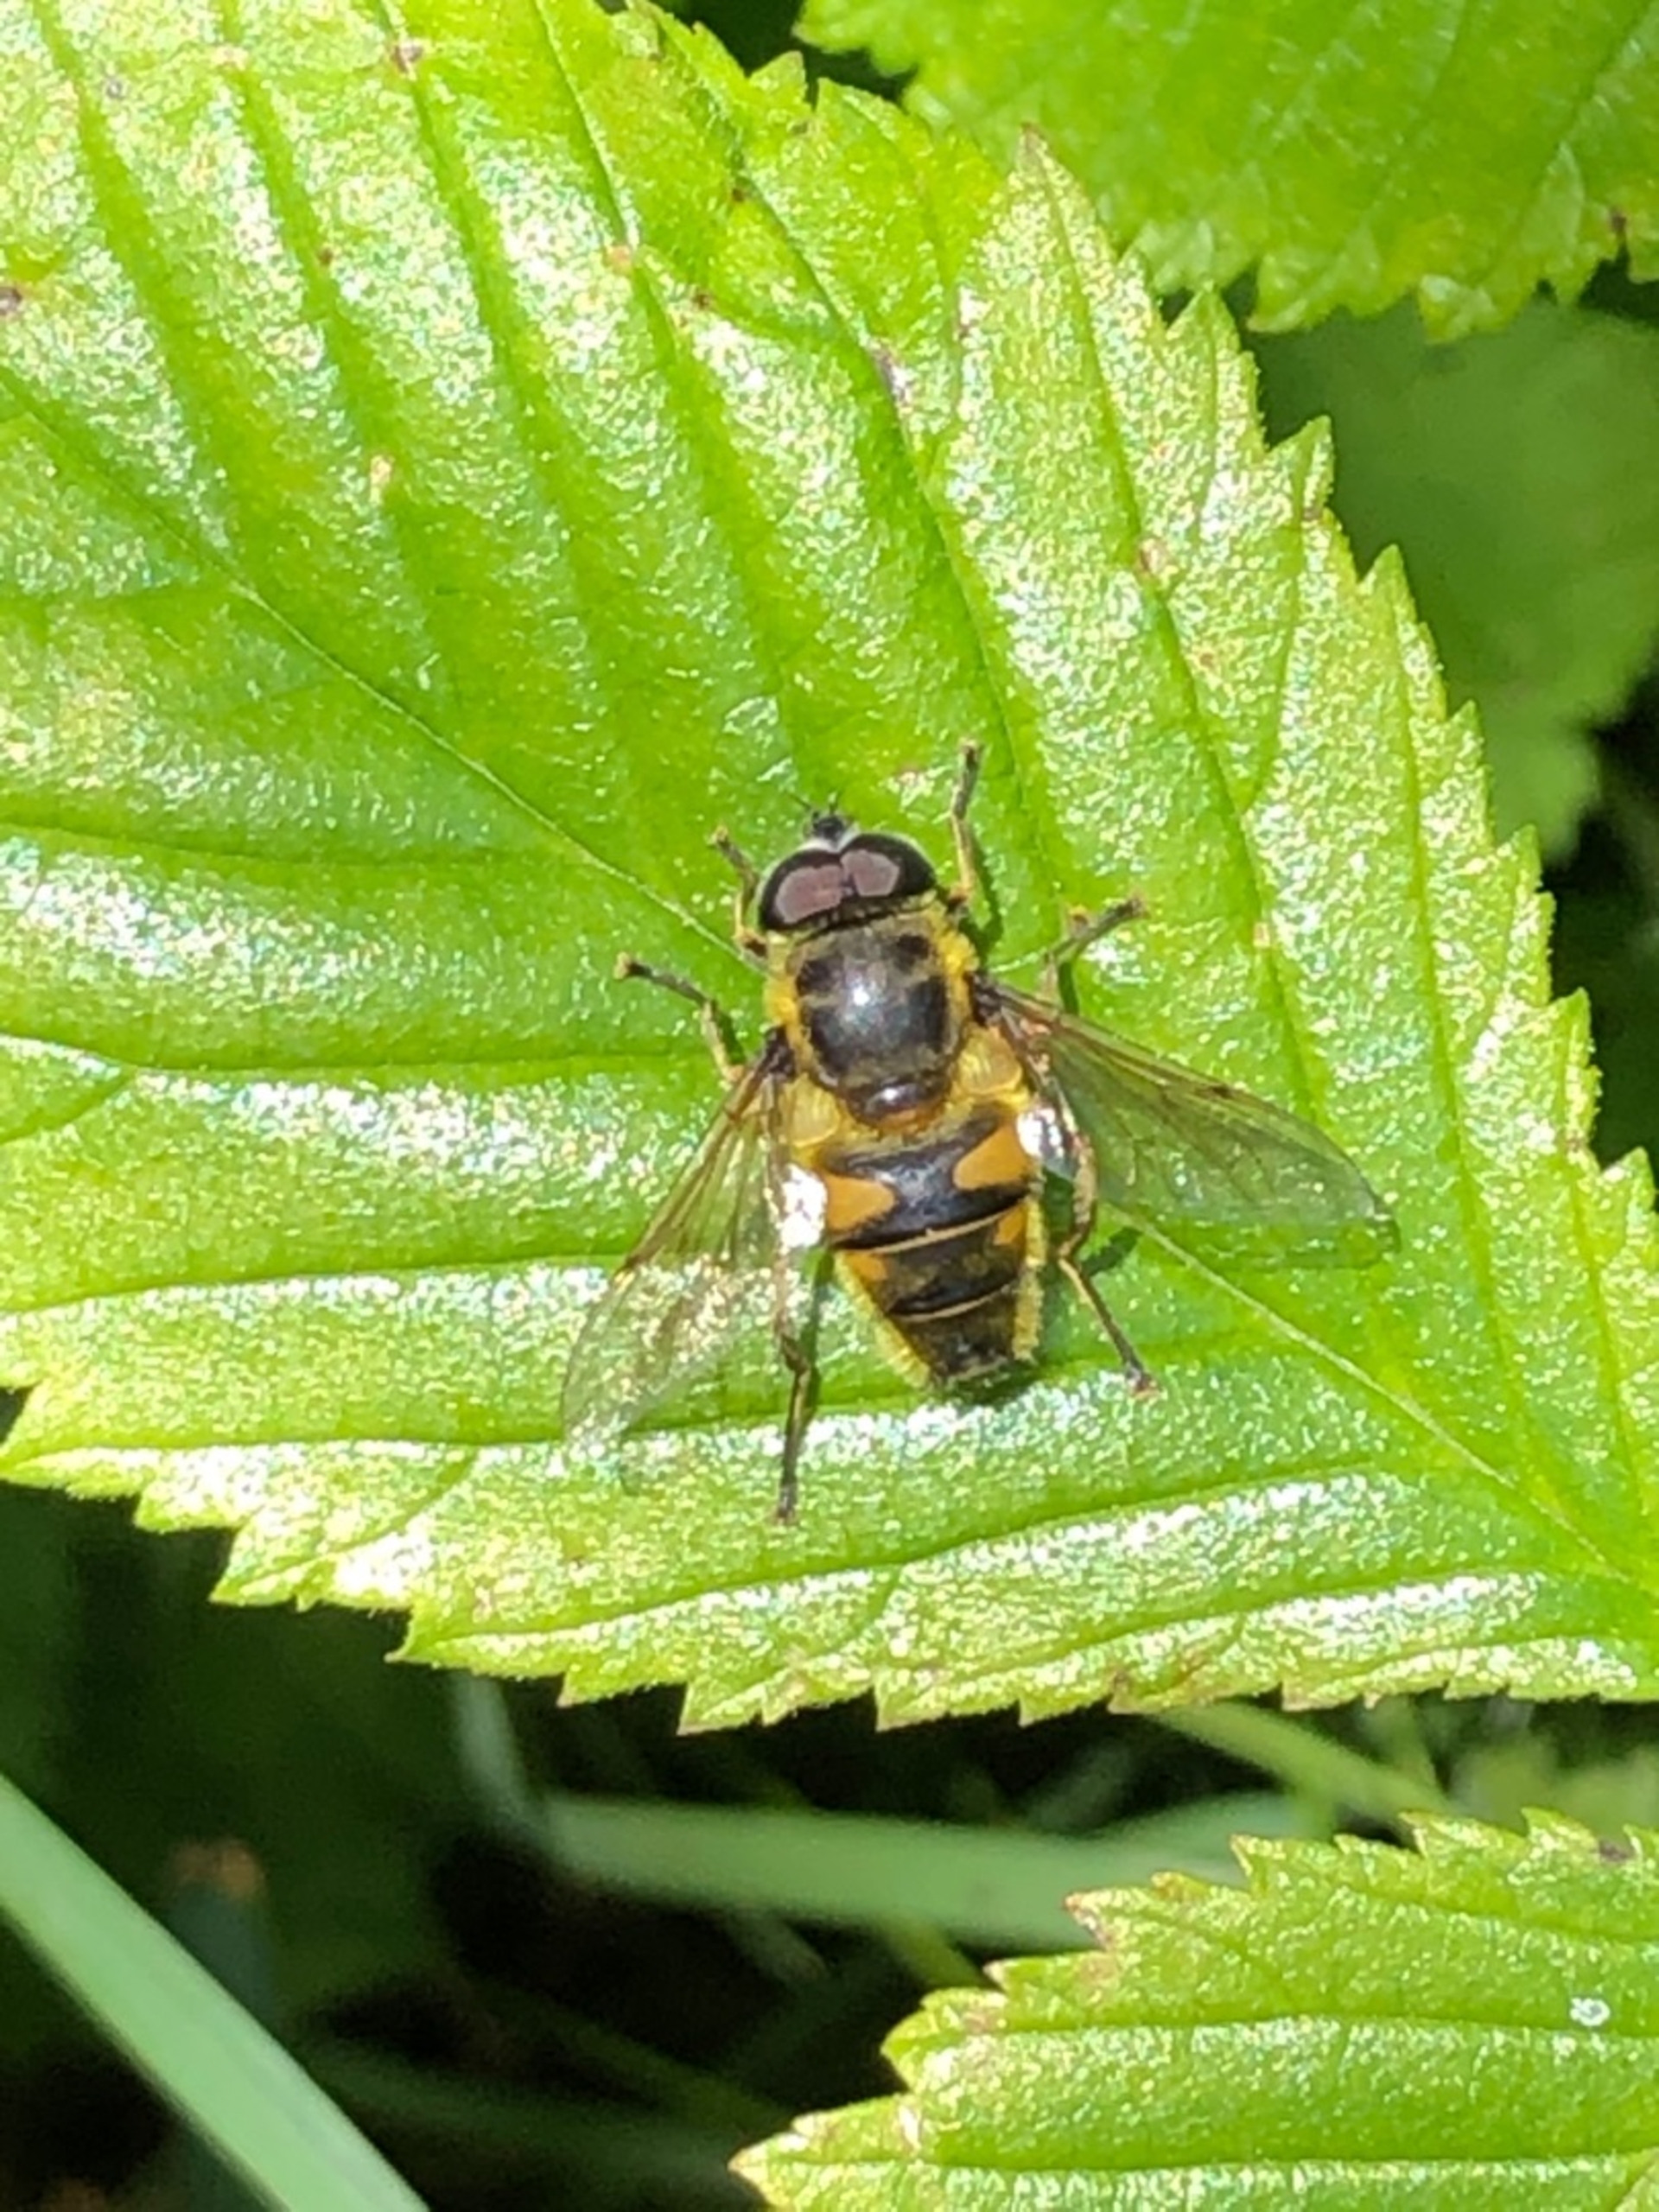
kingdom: Animalia
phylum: Arthropoda
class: Insecta
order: Diptera
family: Syrphidae
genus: Myathropa
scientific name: Myathropa florea
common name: Dødningehoved-svirreflue
